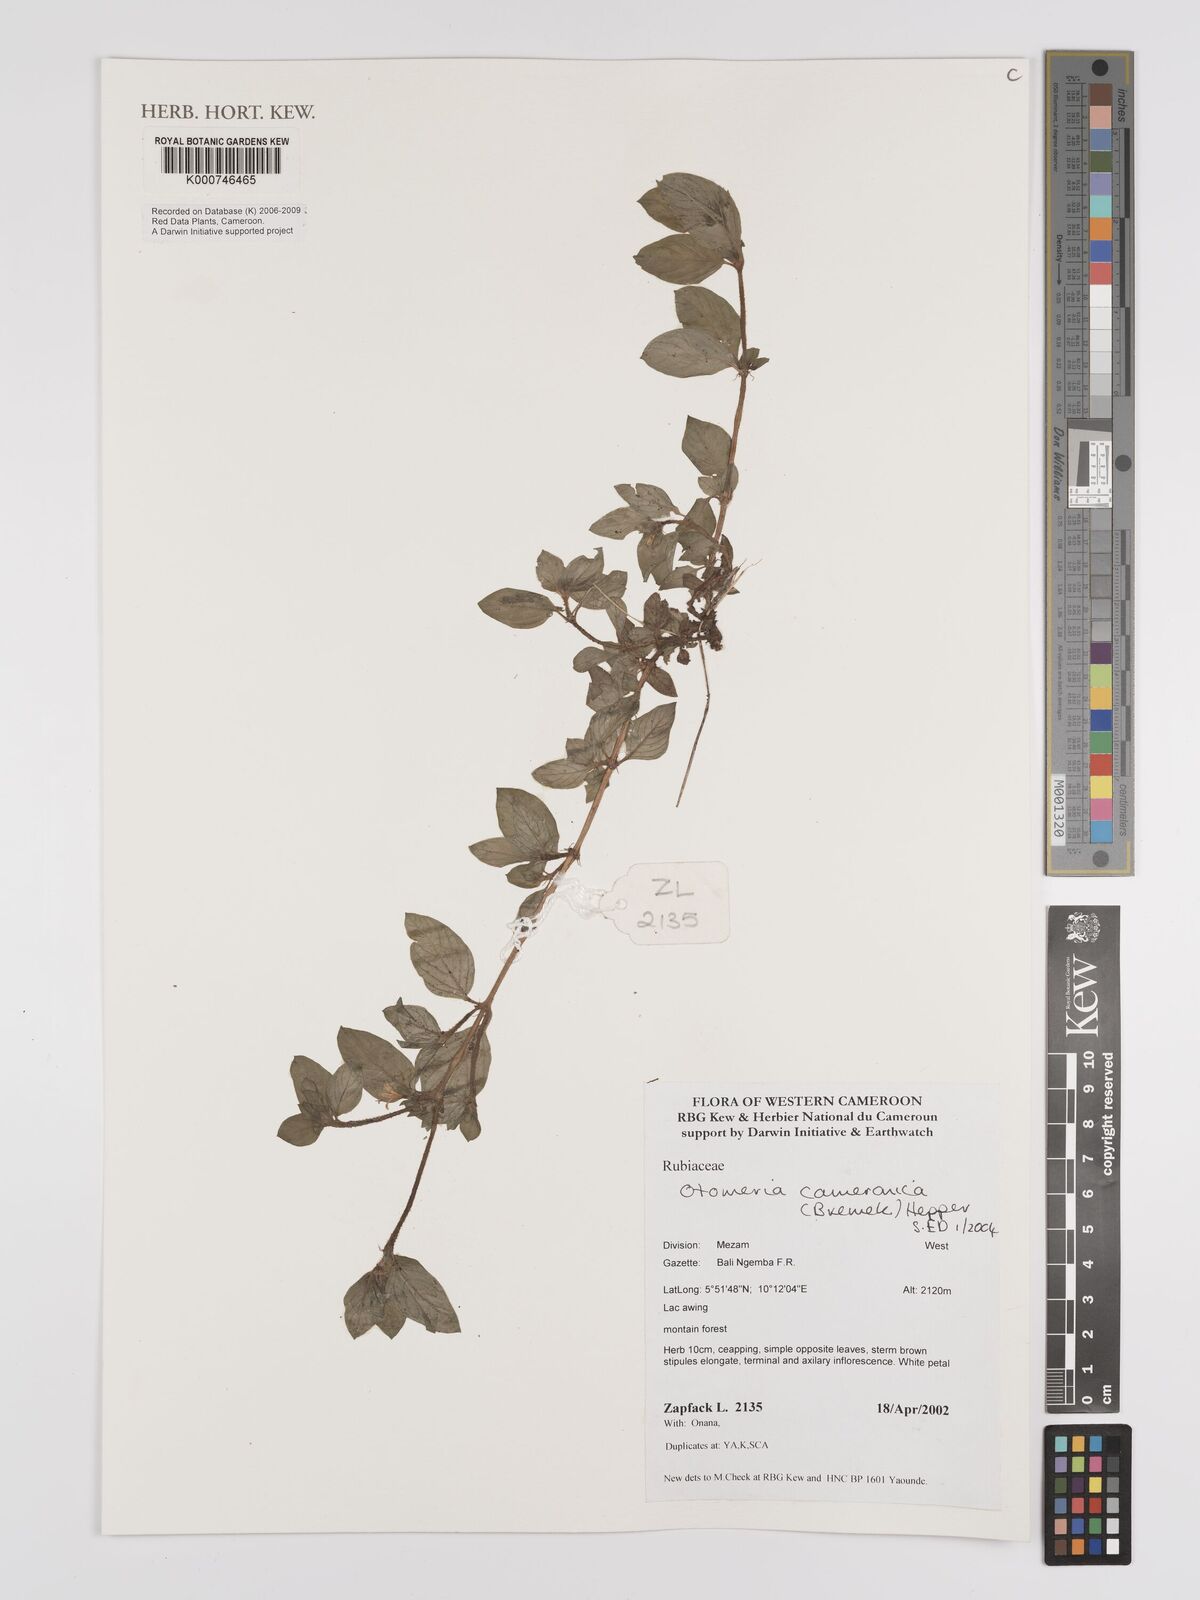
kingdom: Plantae
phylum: Tracheophyta
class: Magnoliopsida
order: Gentianales
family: Rubiaceae
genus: Otomeria
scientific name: Otomeria cameronica
